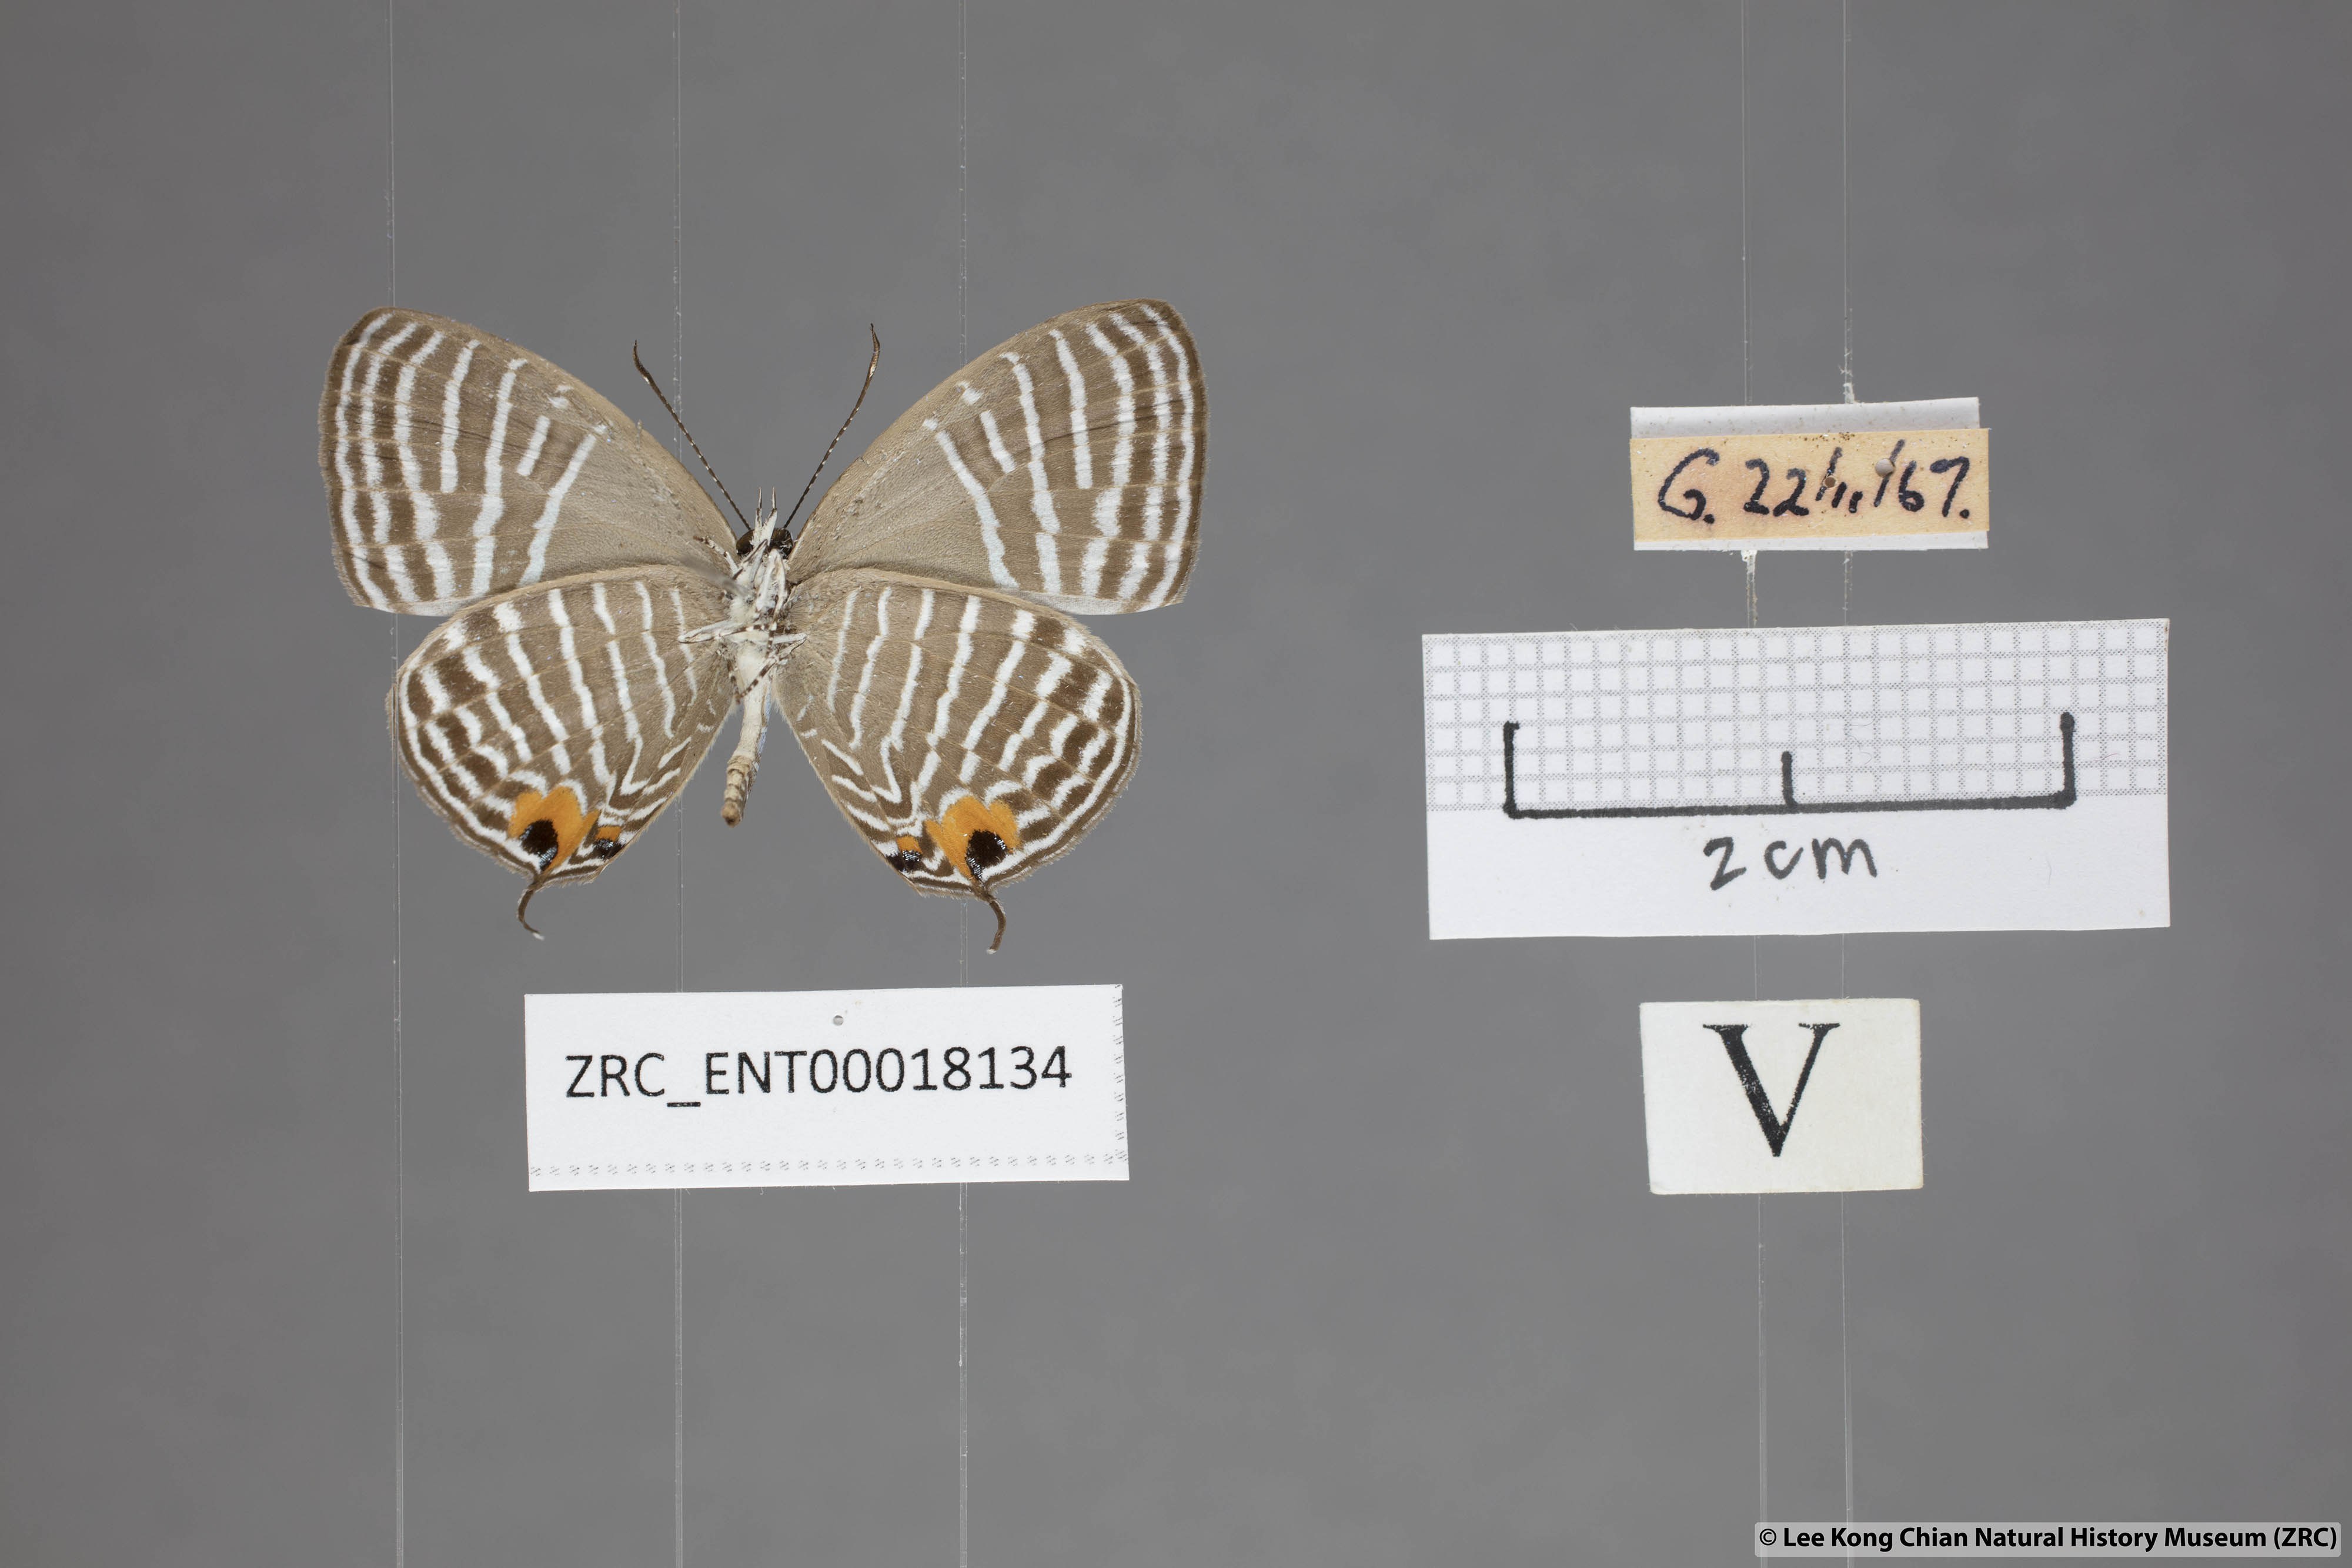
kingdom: Animalia
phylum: Arthropoda
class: Insecta
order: Lepidoptera
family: Lycaenidae
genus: Jamides
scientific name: Jamides malaccanus
